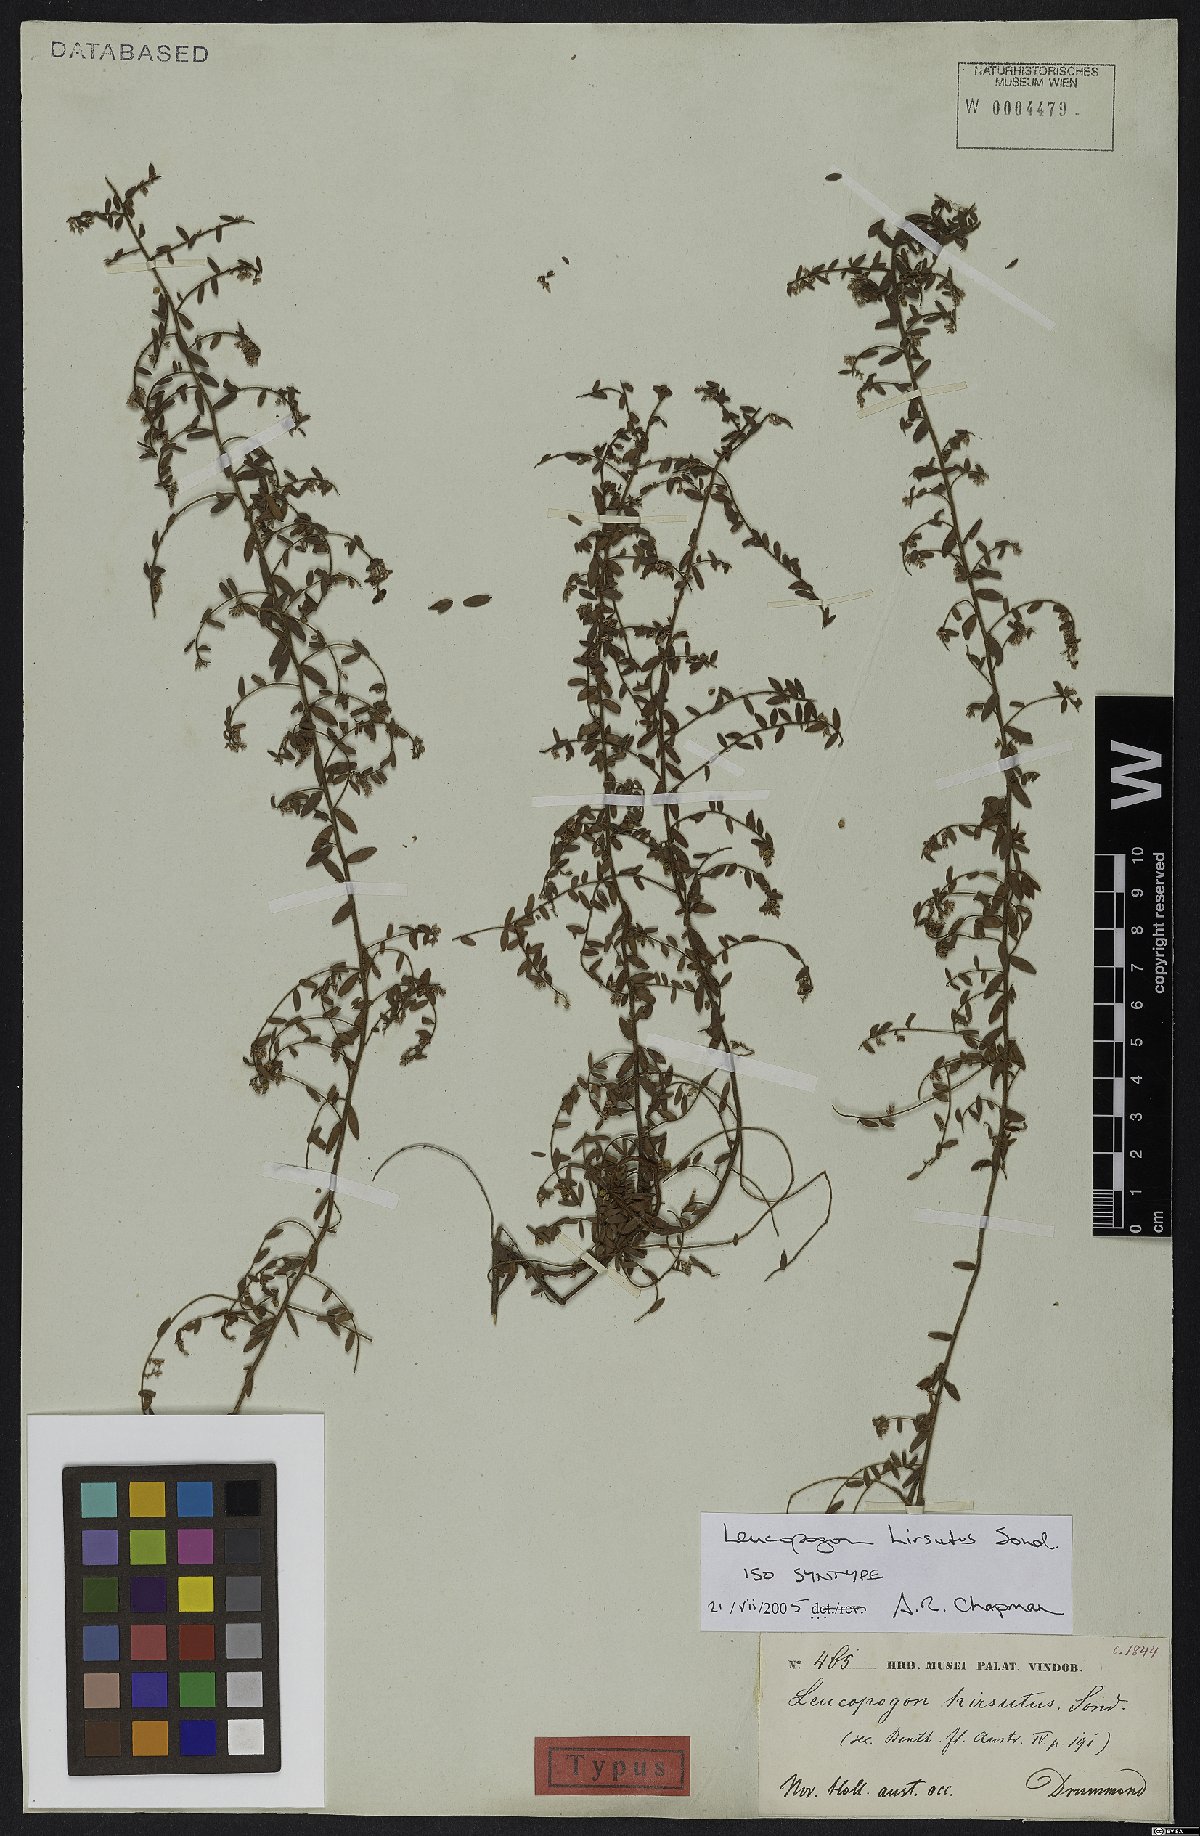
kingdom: Plantae
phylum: Tracheophyta
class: Magnoliopsida
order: Ericales
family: Ericaceae
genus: Leucopogon
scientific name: Leucopogon hirsutus
